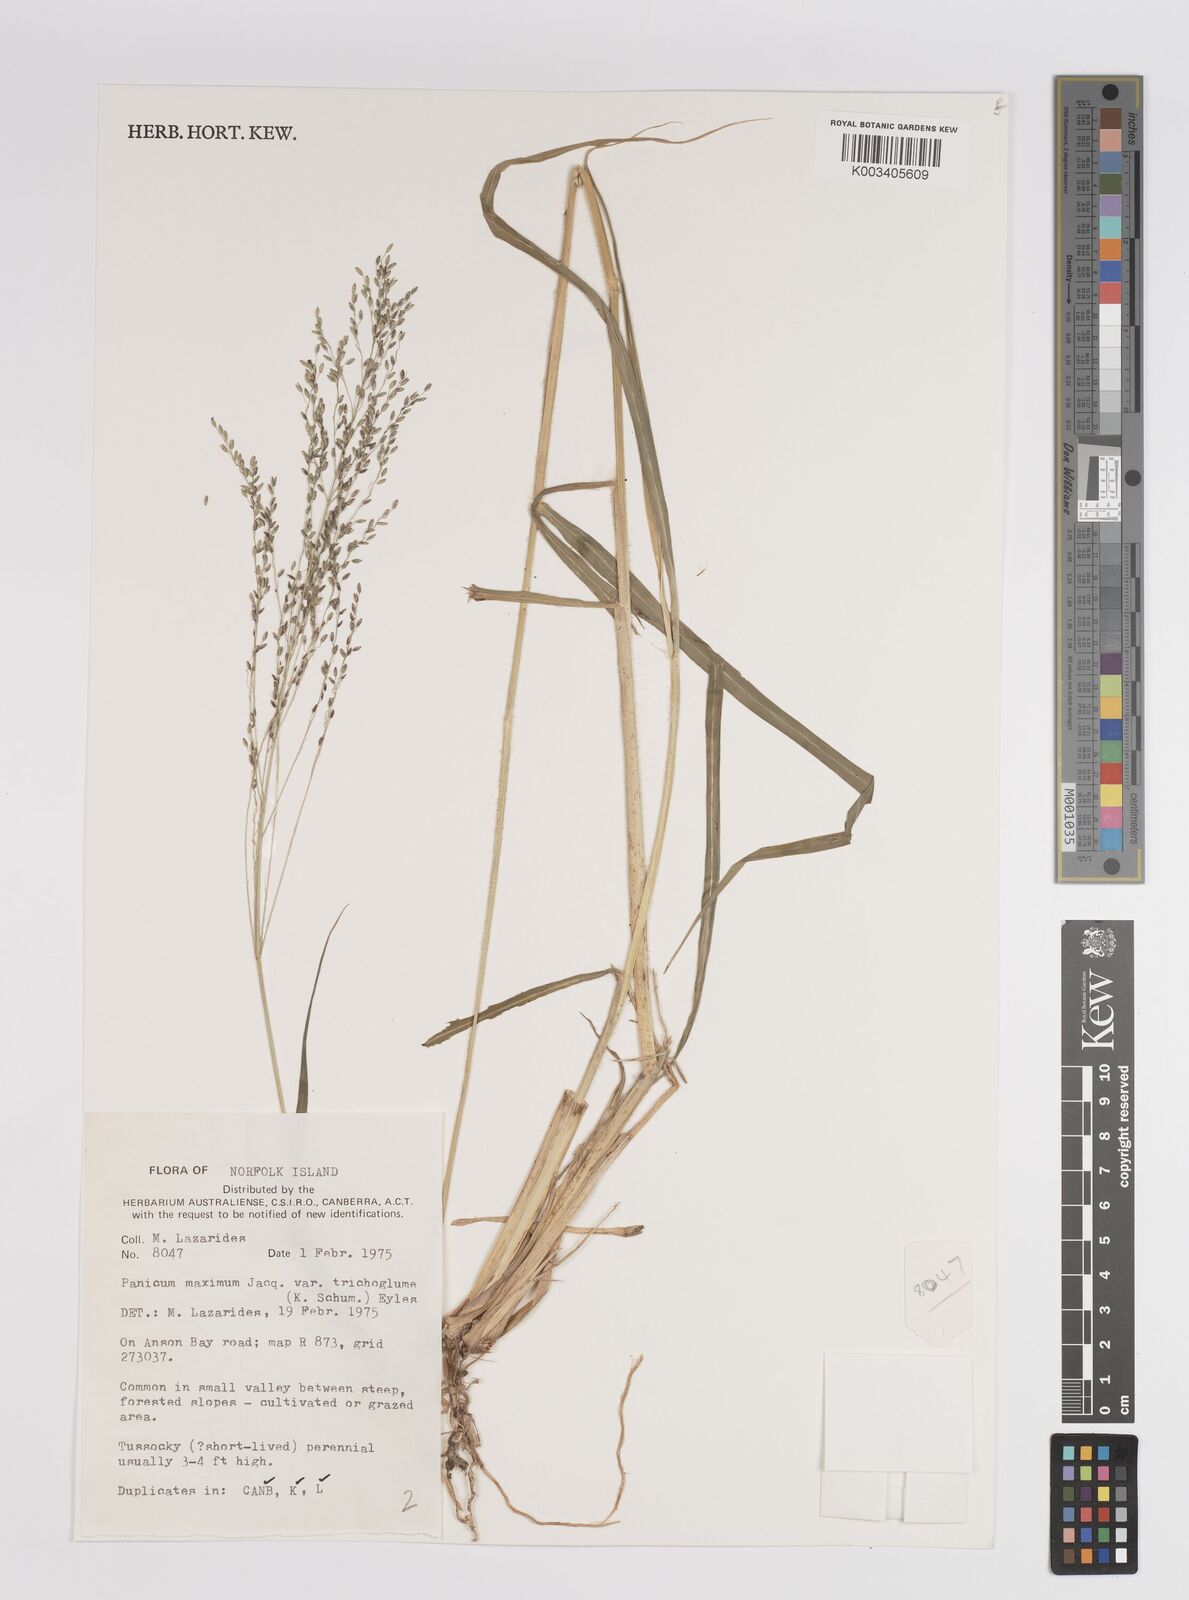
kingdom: Plantae
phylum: Tracheophyta
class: Liliopsida
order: Poales
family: Poaceae
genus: Megathyrsus
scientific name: Megathyrsus maximus
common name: Guineagrass
